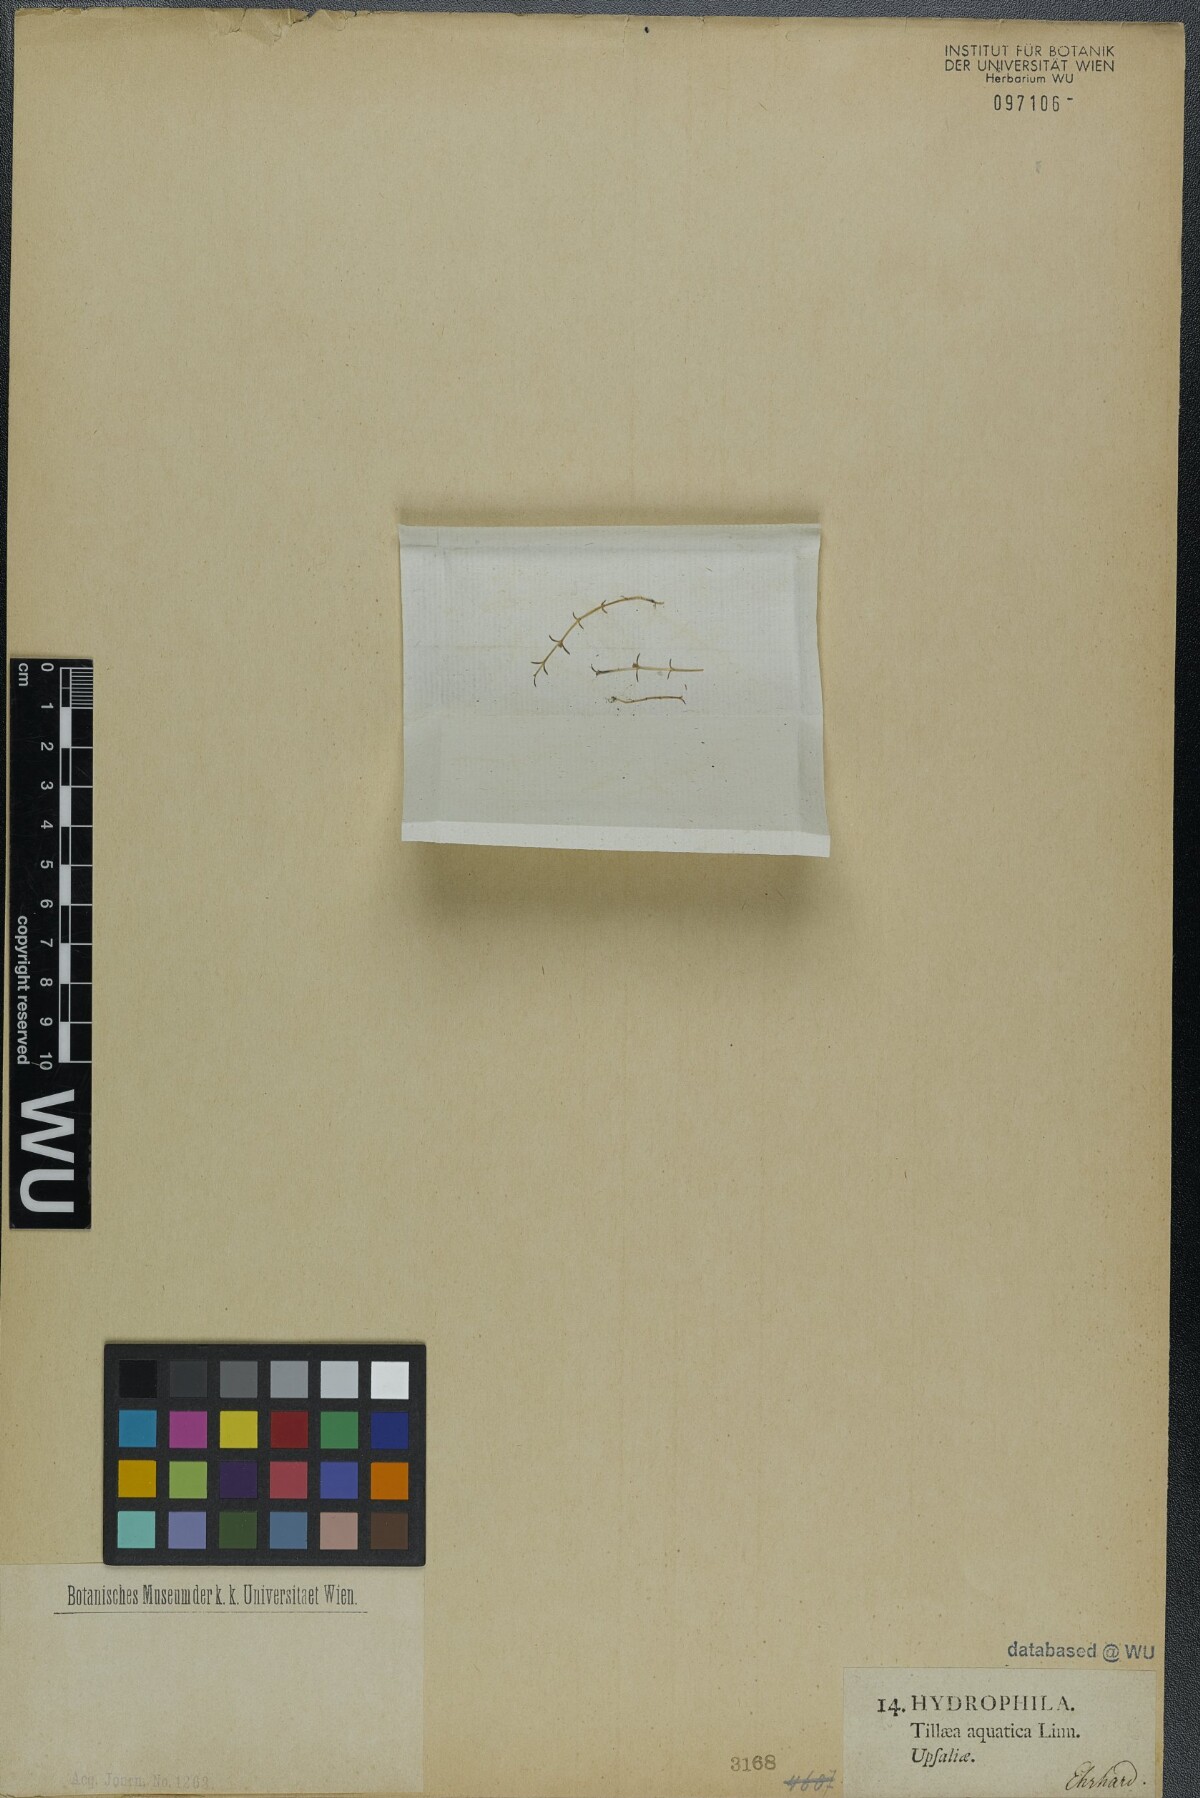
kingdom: Plantae
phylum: Tracheophyta
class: Magnoliopsida
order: Saxifragales
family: Crassulaceae
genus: Crassula
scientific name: Crassula aquatica
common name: Pigmyweed
